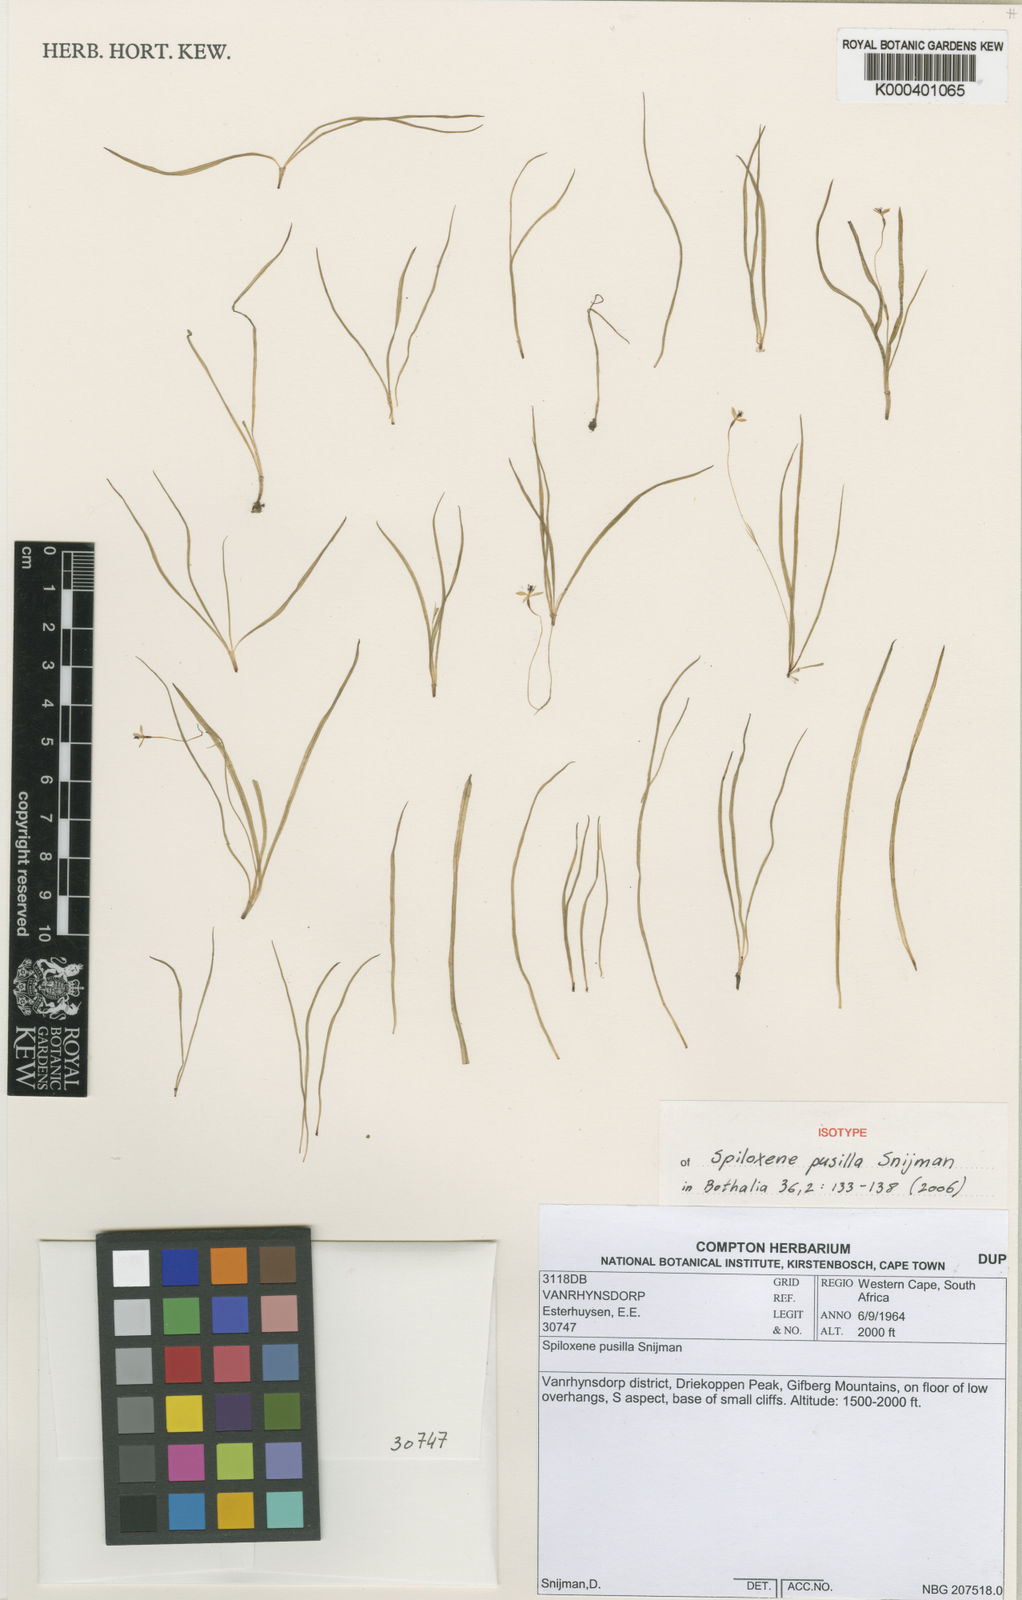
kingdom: Plantae
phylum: Tracheophyta
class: Liliopsida
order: Asparagales
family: Hypoxidaceae
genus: Pauridia
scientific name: Pauridia pusilla
